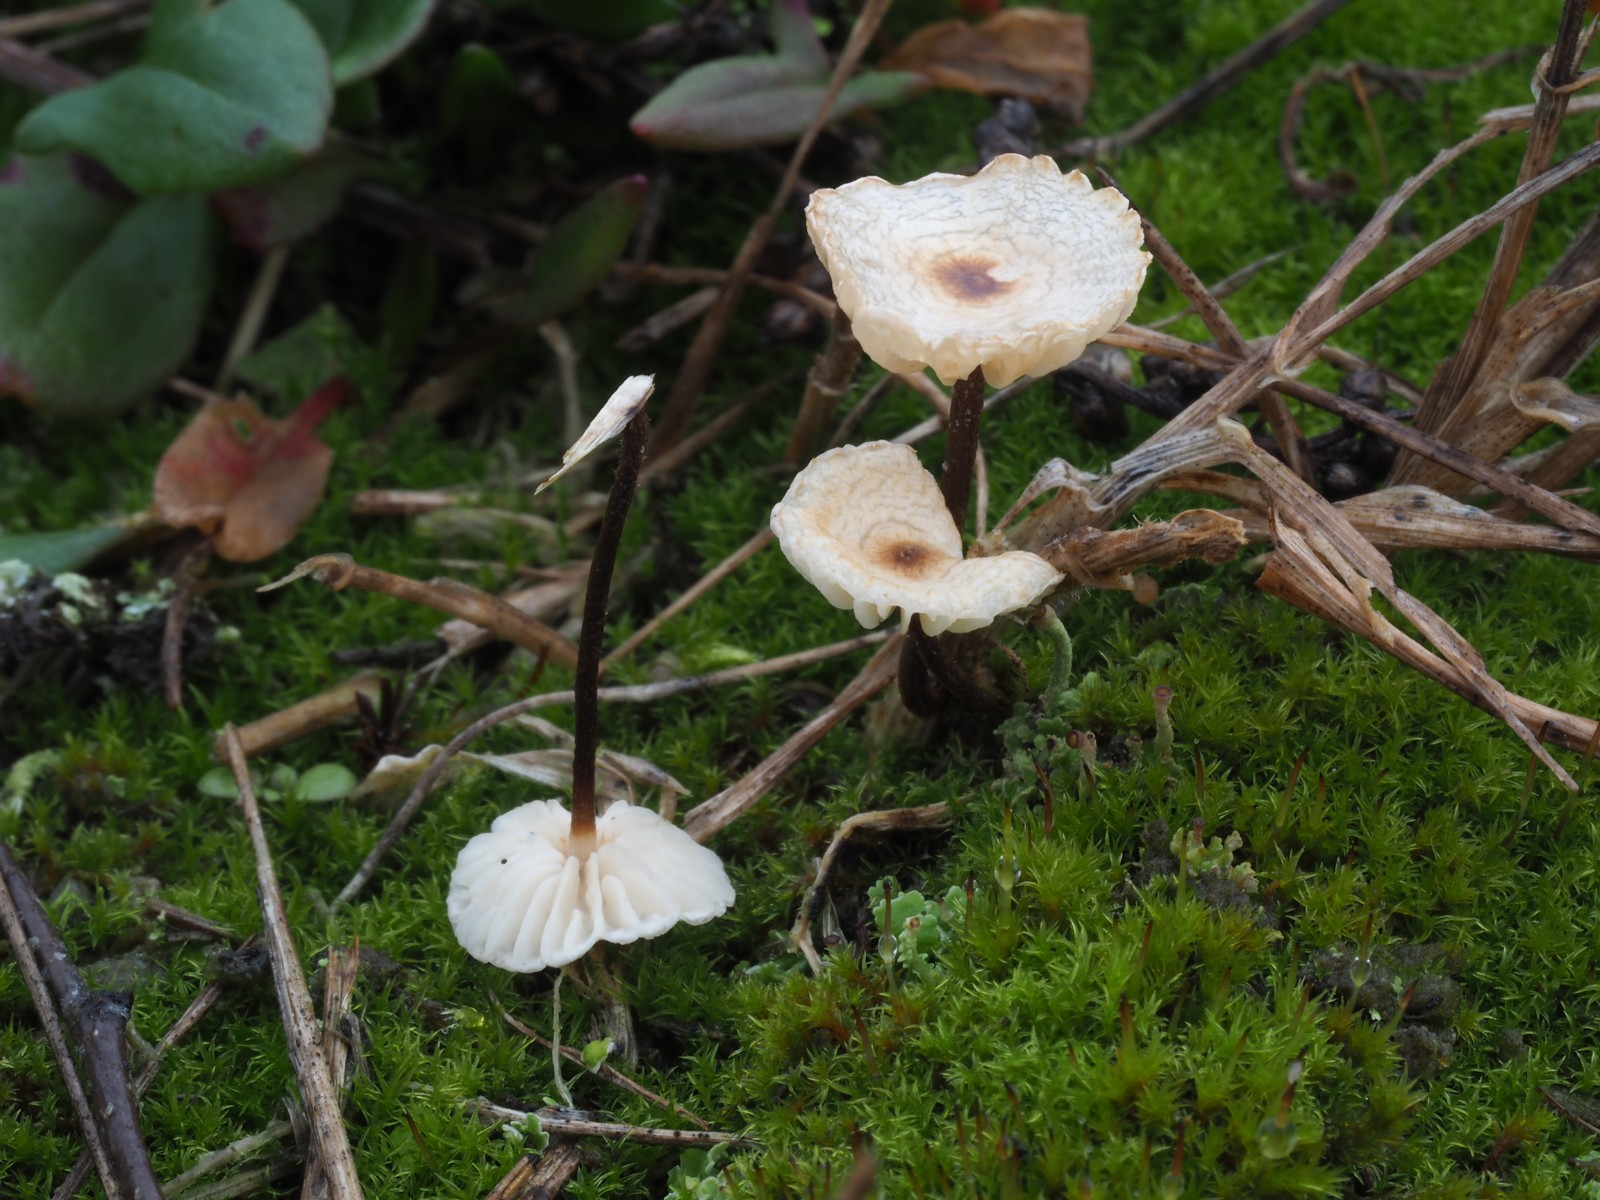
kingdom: Fungi
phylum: Basidiomycota
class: Agaricomycetes
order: Agaricales
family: Marasmiaceae
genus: Crinipellis
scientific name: Crinipellis scabella
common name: børstefod
